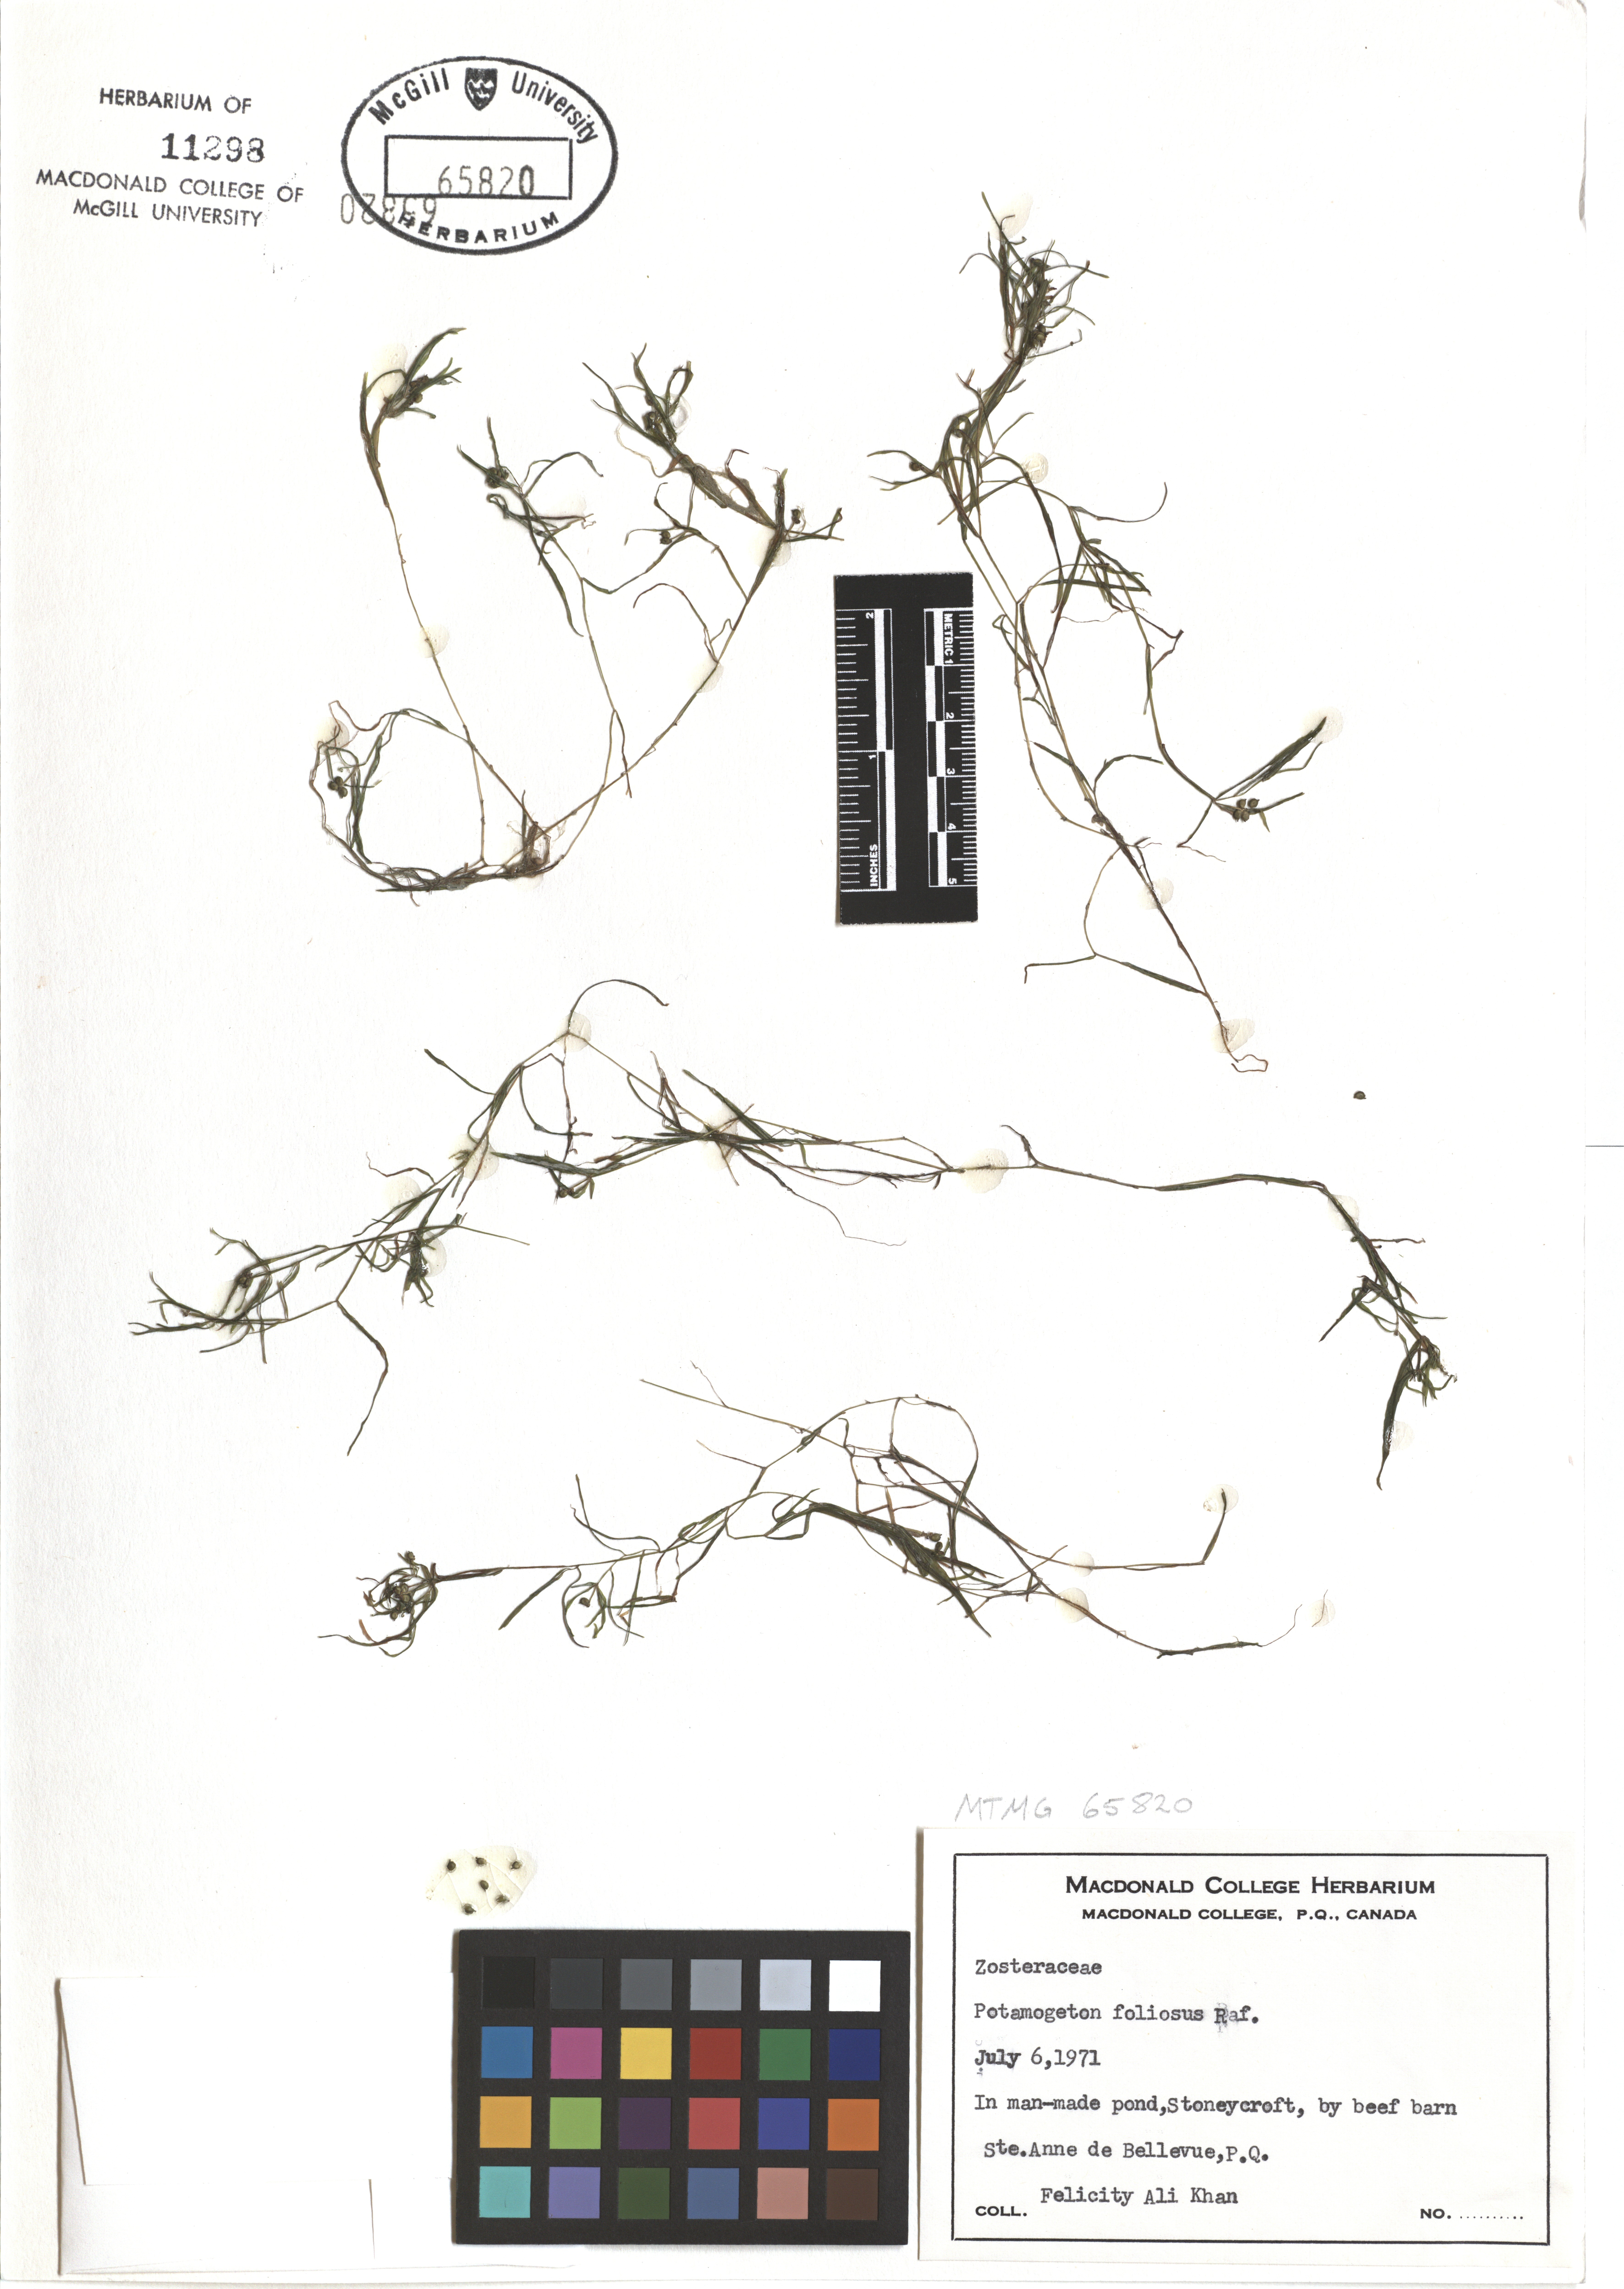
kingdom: Plantae
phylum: Tracheophyta
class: Liliopsida
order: Alismatales
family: Potamogetonaceae
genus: Potamogeton
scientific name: Potamogeton foliosus
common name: Leafy pondweed
